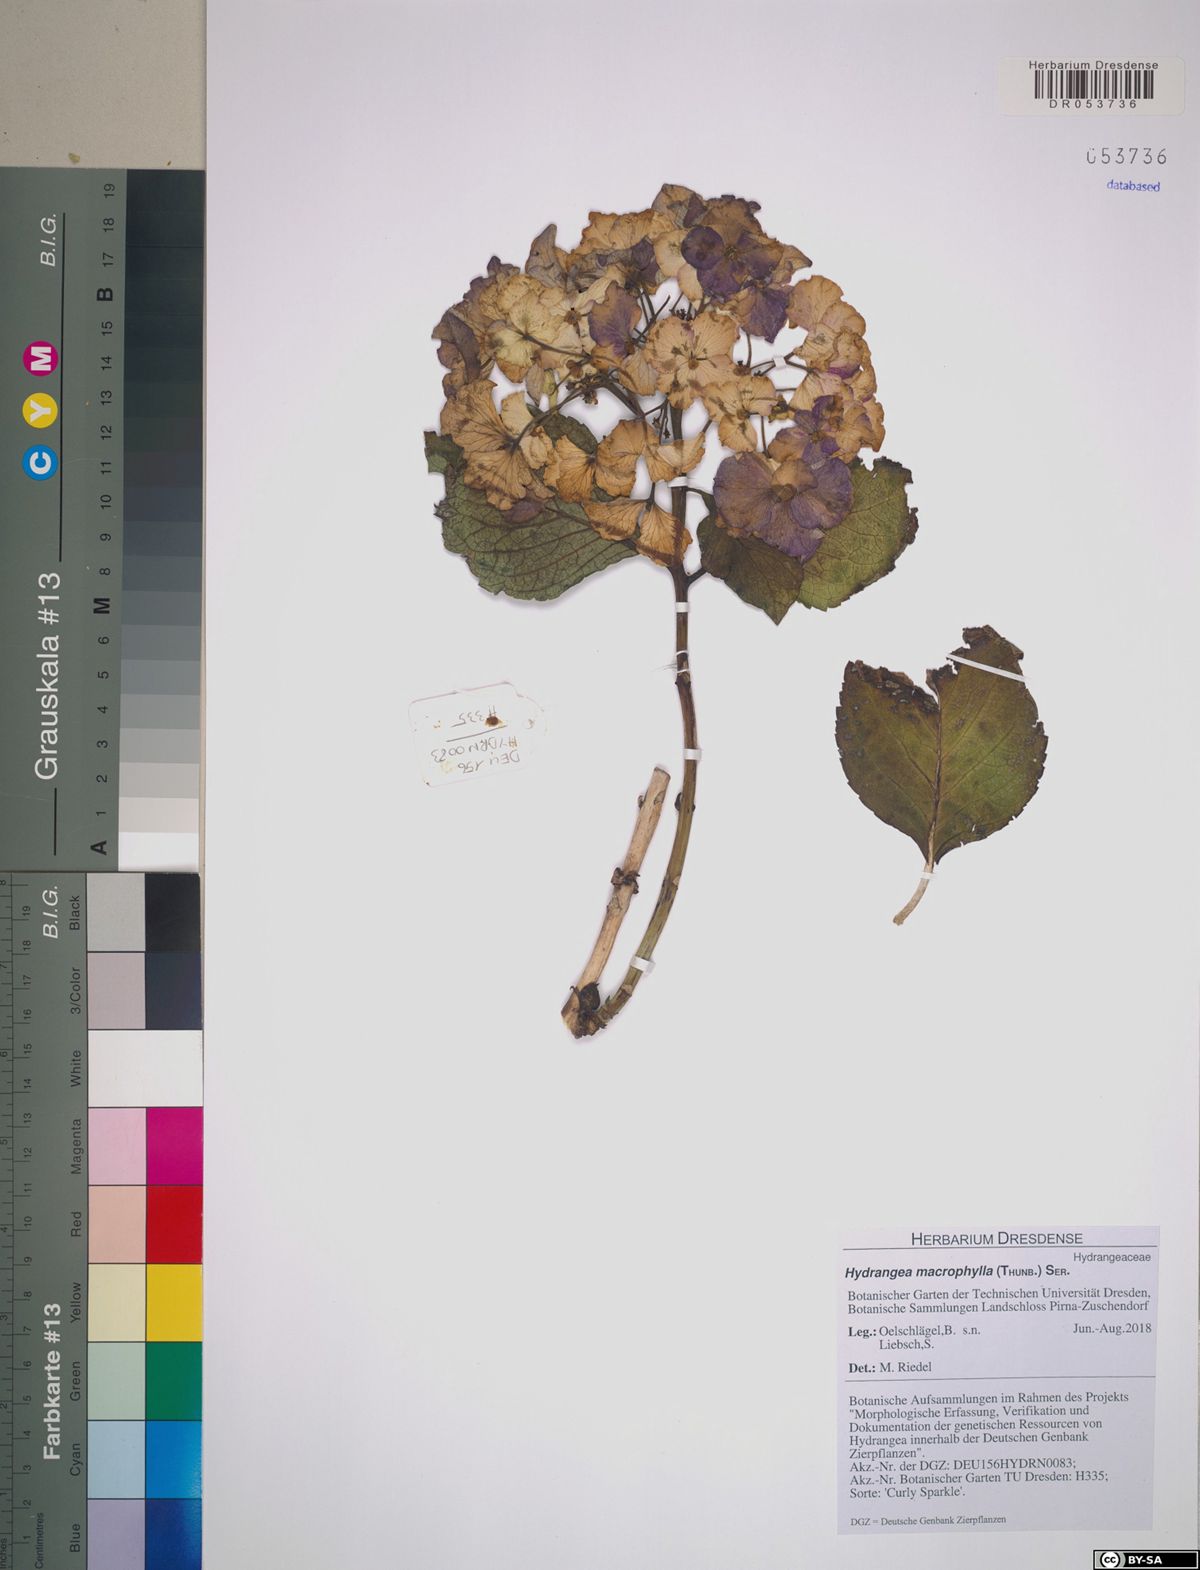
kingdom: Plantae
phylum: Tracheophyta
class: Magnoliopsida
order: Cornales
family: Hydrangeaceae
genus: Hydrangea
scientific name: Hydrangea macrophylla
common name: Hydrangea
